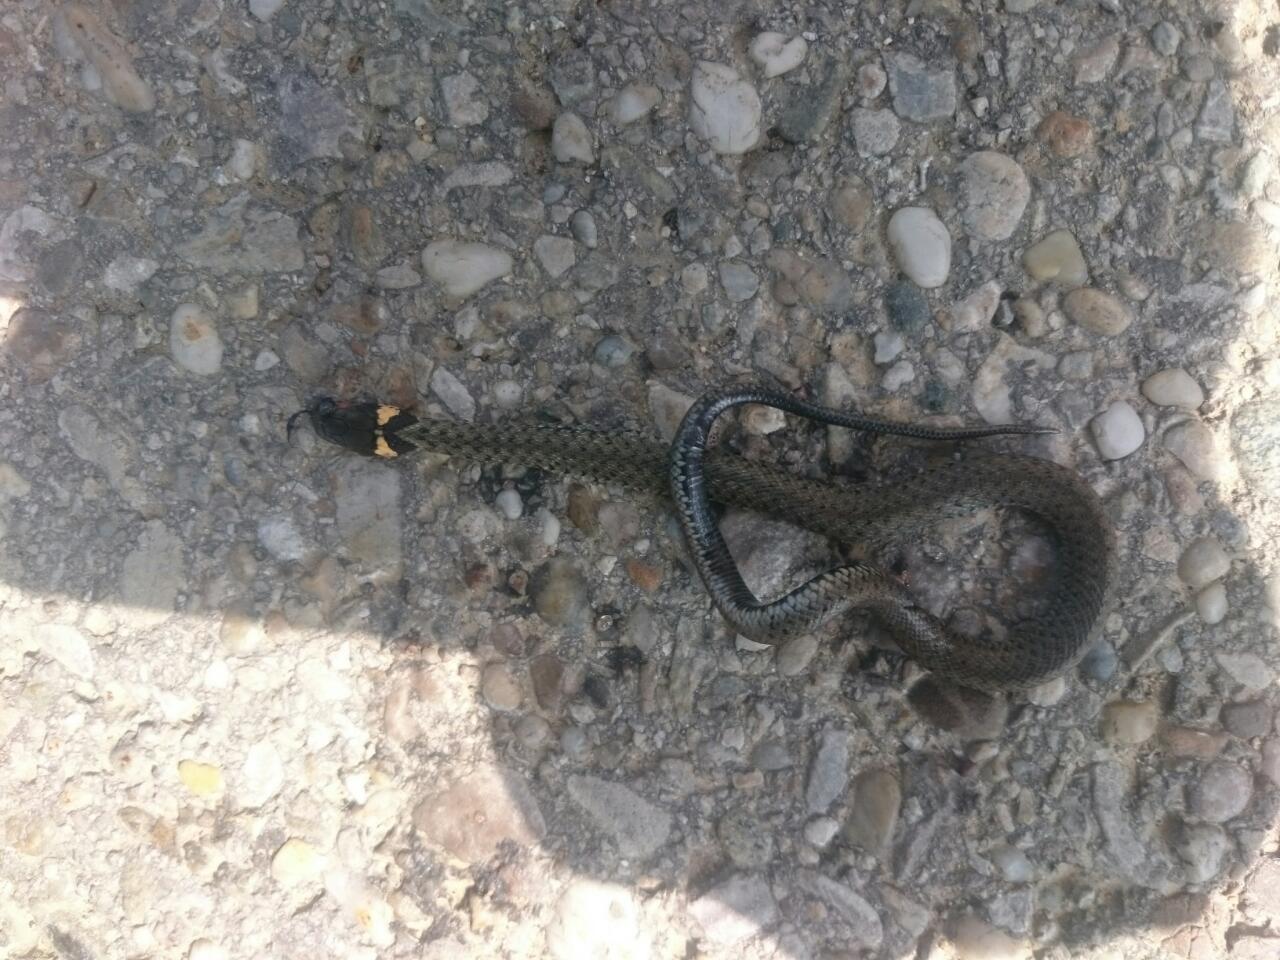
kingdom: Animalia
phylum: Chordata
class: Squamata
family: Colubridae
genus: Natrix
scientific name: Natrix natrix
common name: Grass snake
